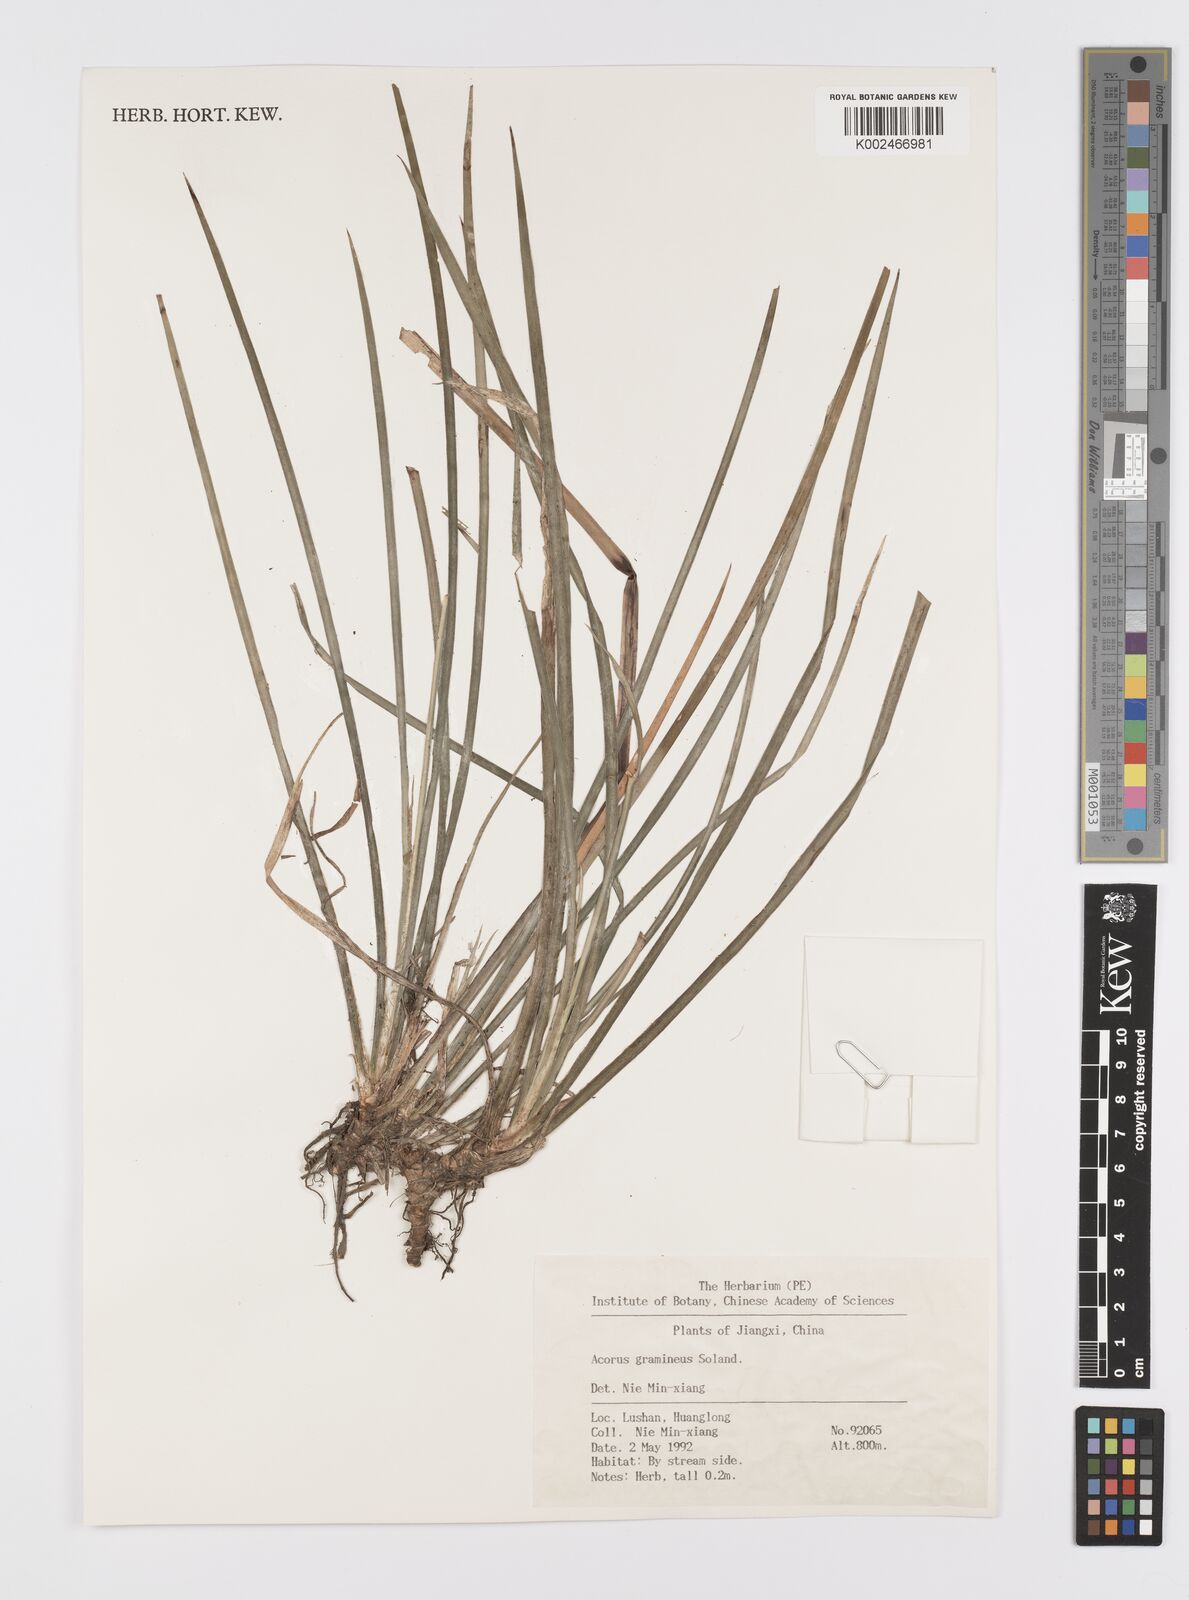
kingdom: Plantae
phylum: Tracheophyta
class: Liliopsida
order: Acorales
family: Acoraceae
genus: Acorus
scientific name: Acorus gramineus
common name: Slender sweet-flag
